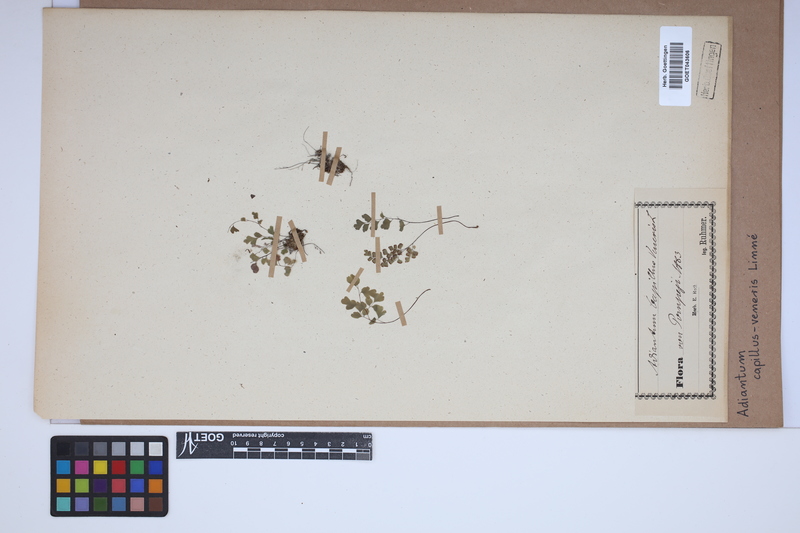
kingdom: Plantae
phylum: Tracheophyta
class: Polypodiopsida
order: Polypodiales
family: Pteridaceae
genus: Adiantum
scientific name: Adiantum capillus-veneris
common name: Maidenhair fern
